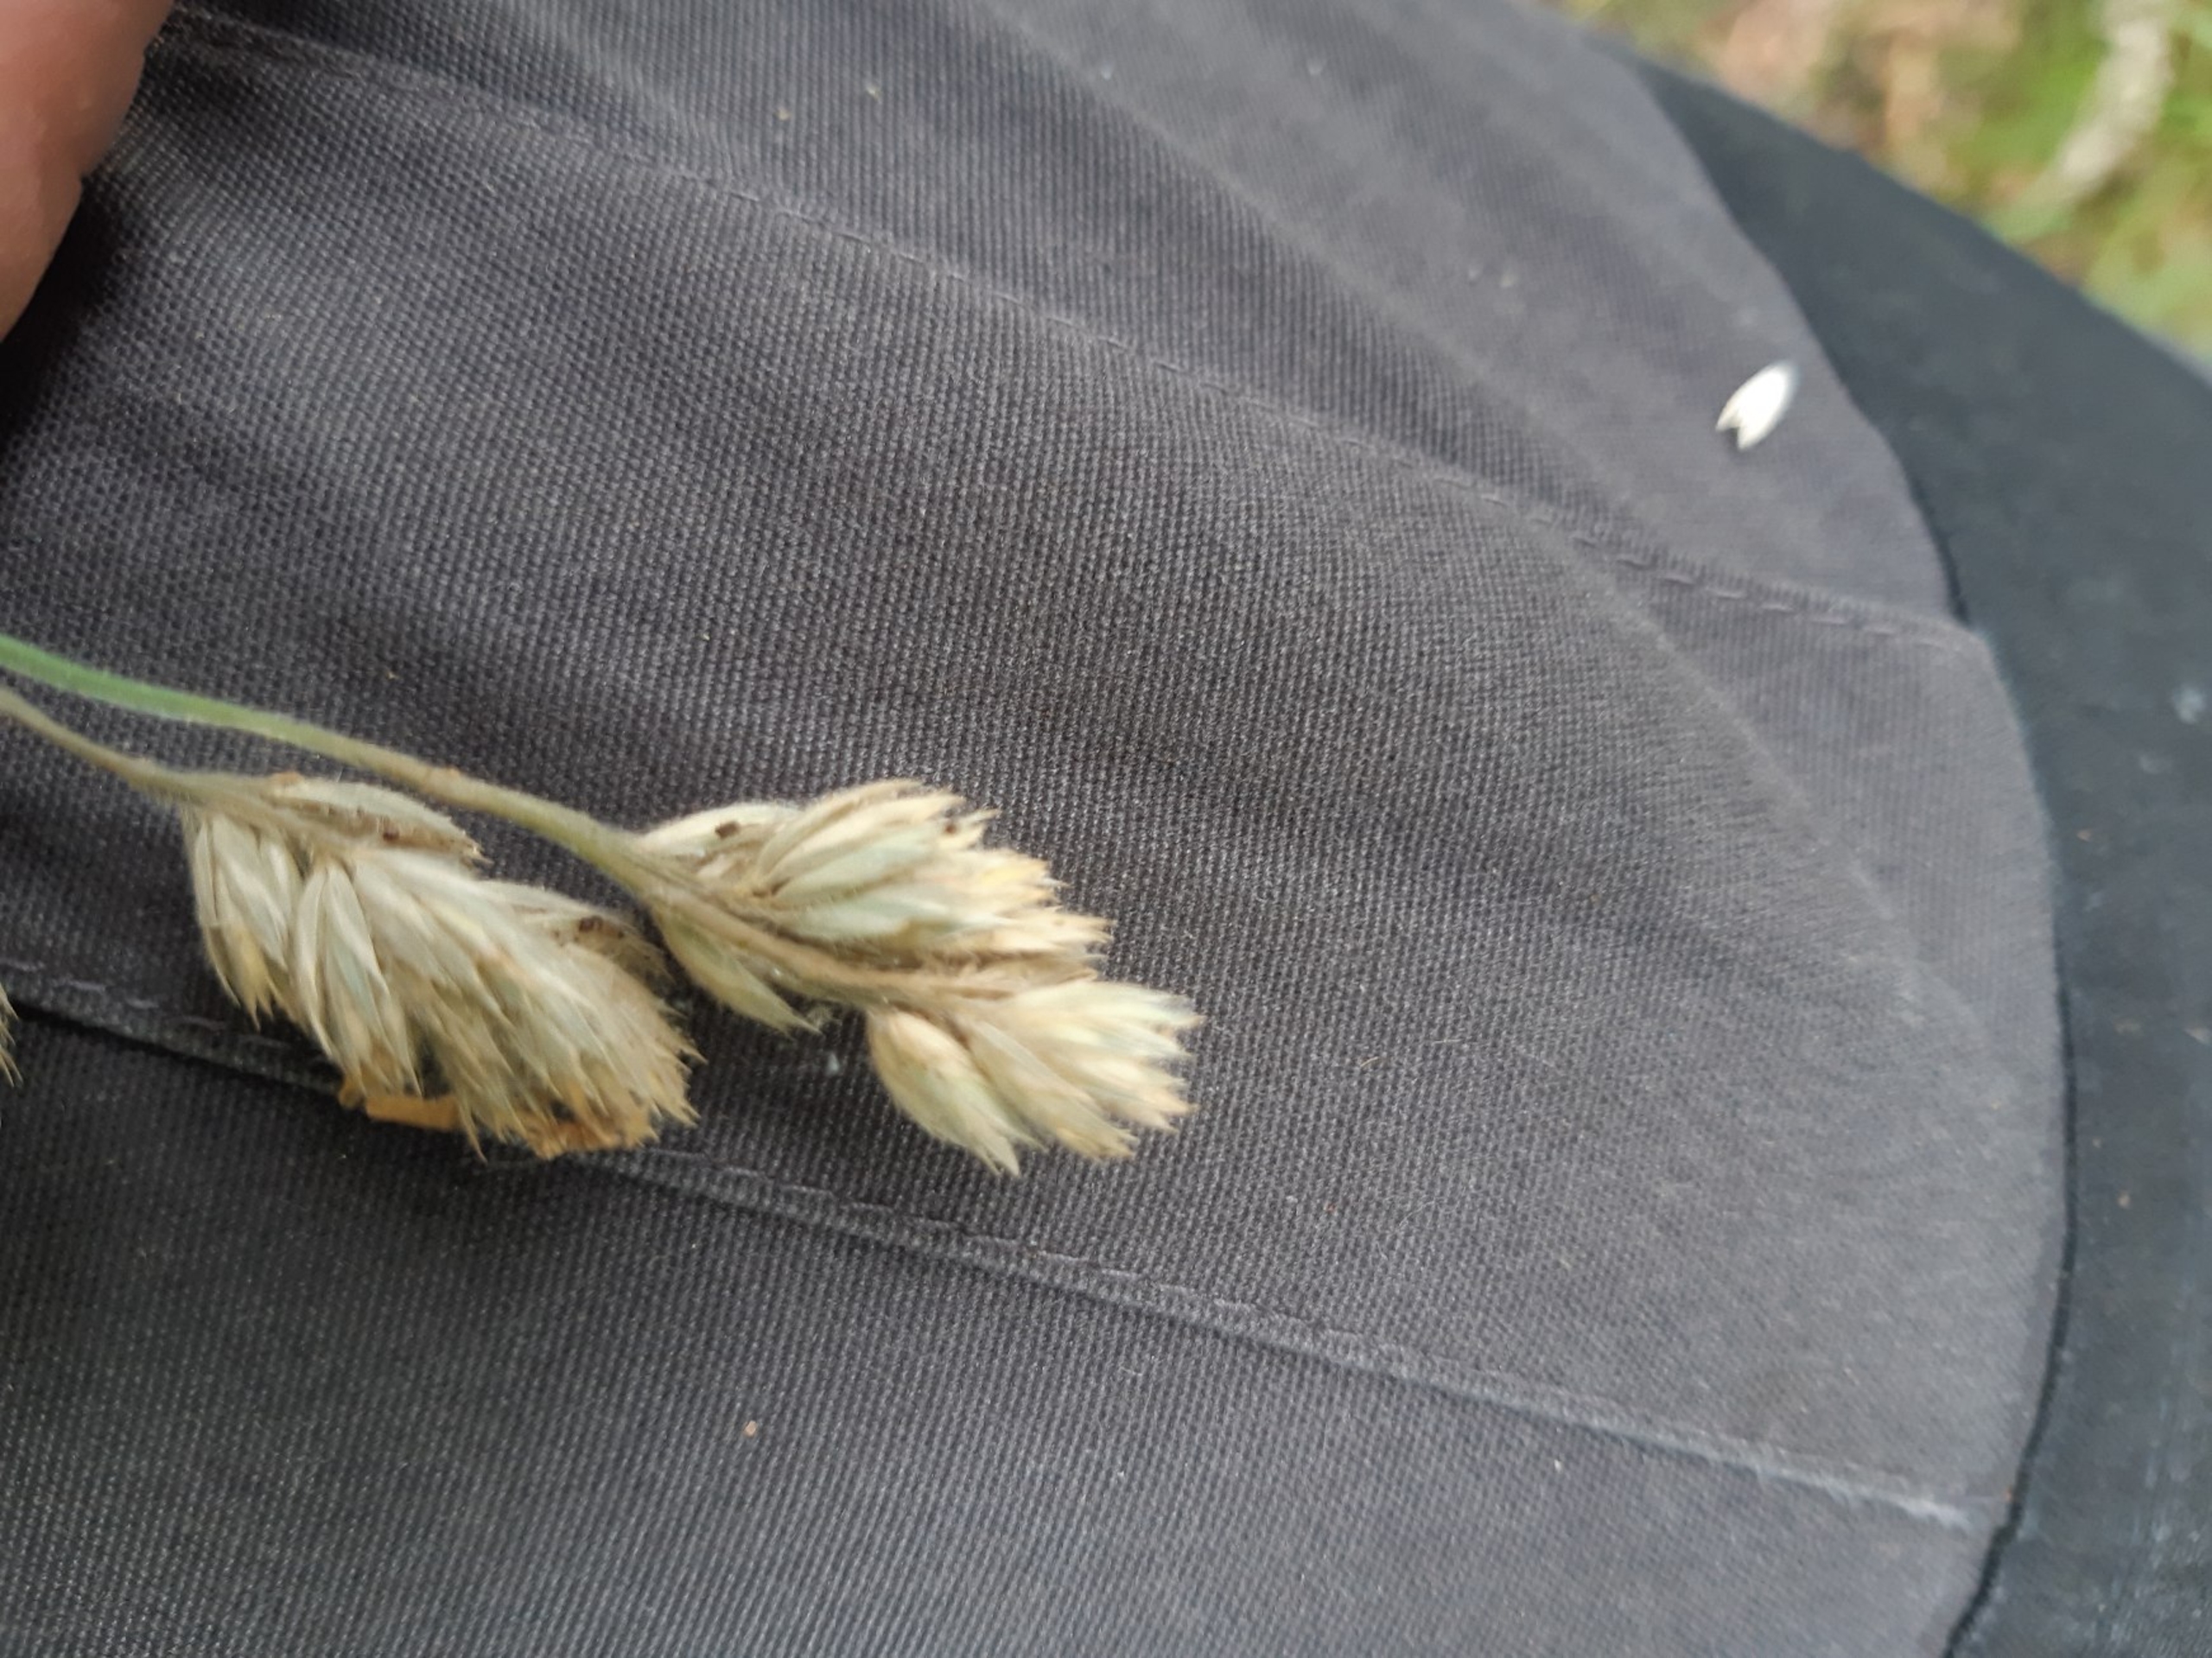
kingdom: Plantae
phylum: Tracheophyta
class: Liliopsida
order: Poales
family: Poaceae
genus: Dactylis
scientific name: Dactylis glomerata
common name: Almindelig hundegræs
